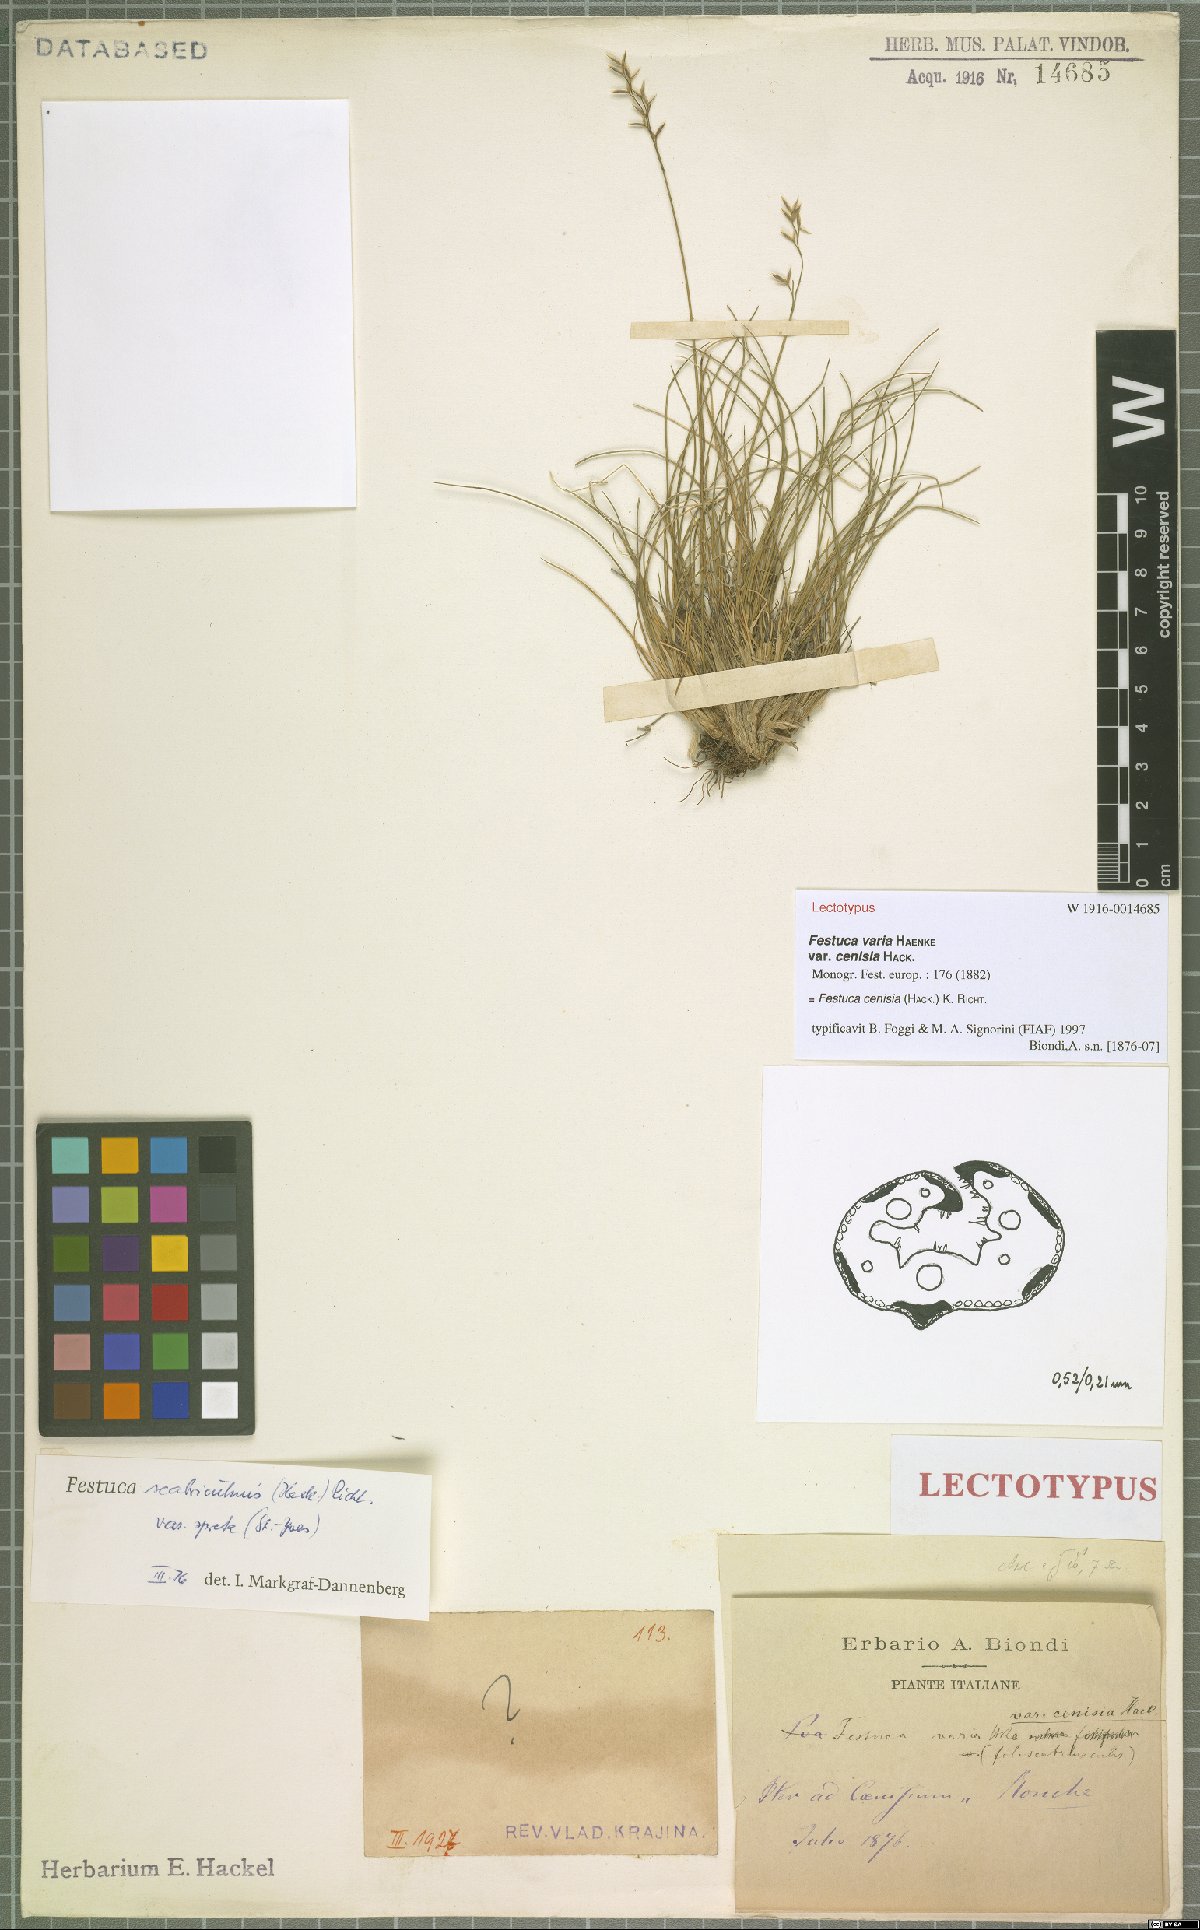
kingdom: Plantae
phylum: Tracheophyta
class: Liliopsida
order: Poales
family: Poaceae
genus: Festuca
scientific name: Festuca scabriculmis
